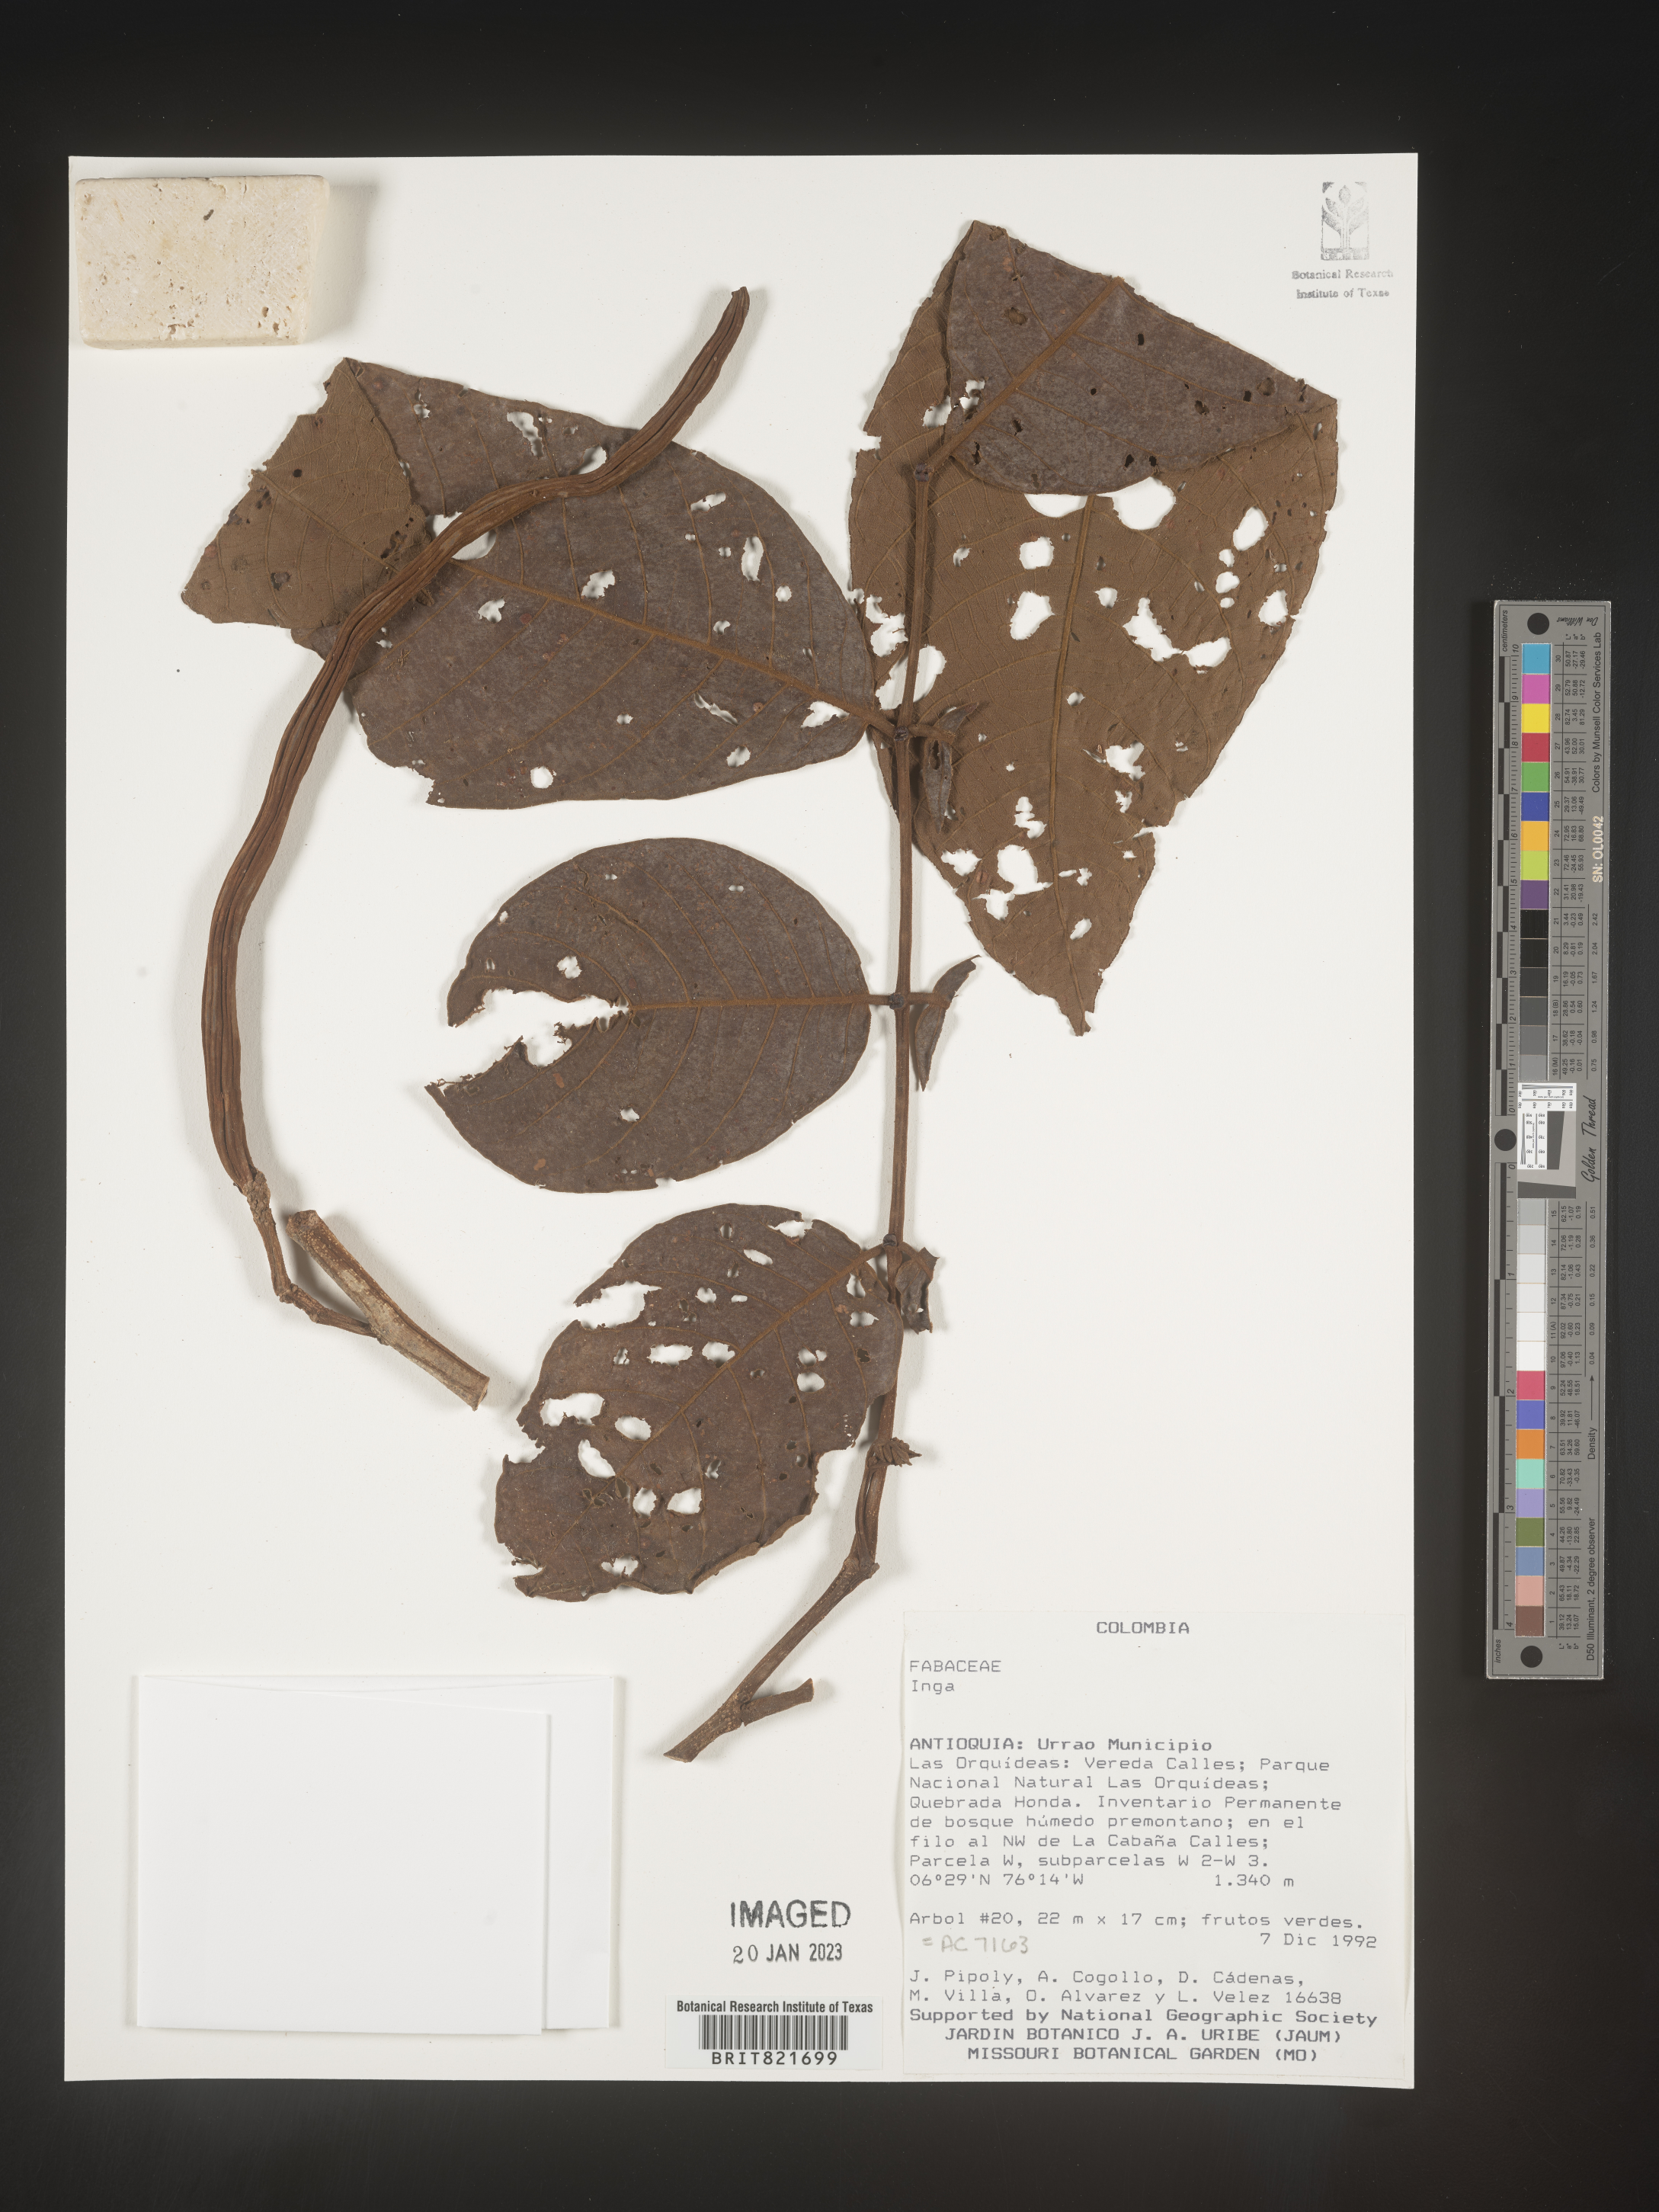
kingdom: Plantae
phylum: Tracheophyta
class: Magnoliopsida
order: Fabales
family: Fabaceae
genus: Inga
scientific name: Inga
